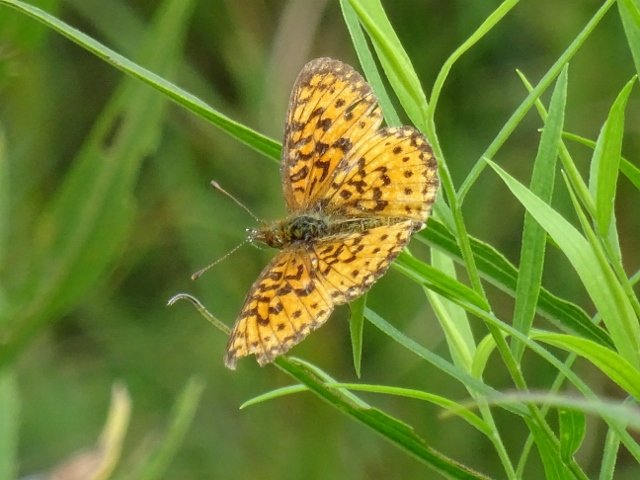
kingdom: Animalia
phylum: Arthropoda
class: Insecta
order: Lepidoptera
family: Nymphalidae
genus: Boloria
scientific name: Boloria selene
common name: Silver-bordered Fritillary
